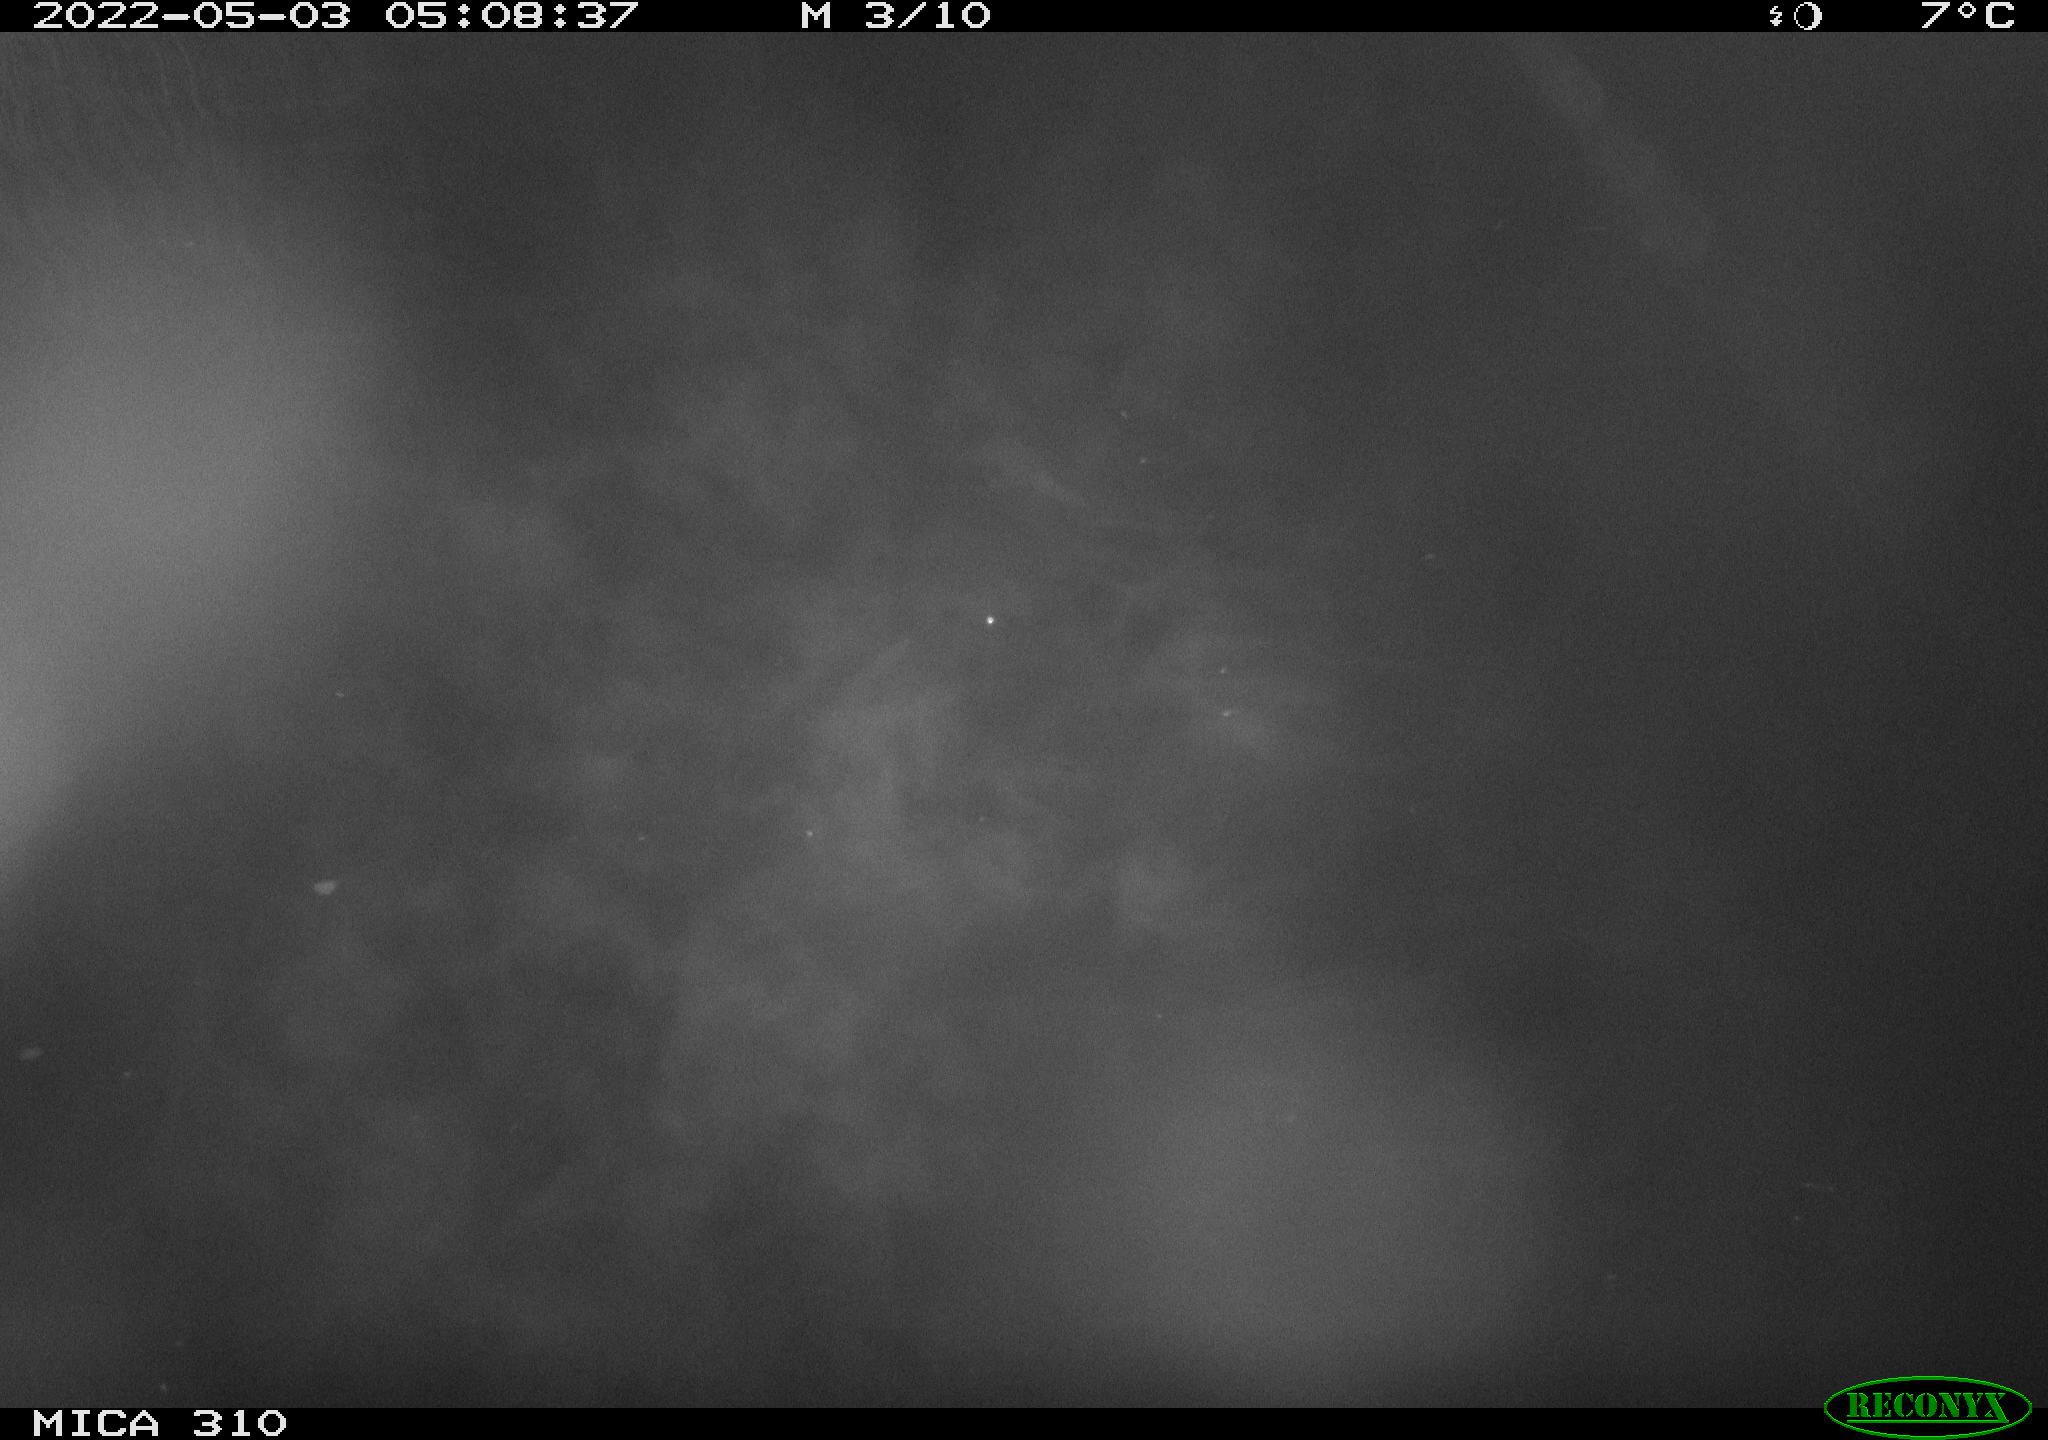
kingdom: Animalia
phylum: Chordata
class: Aves
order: Gruiformes
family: Rallidae
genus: Fulica
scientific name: Fulica atra
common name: Eurasian coot
